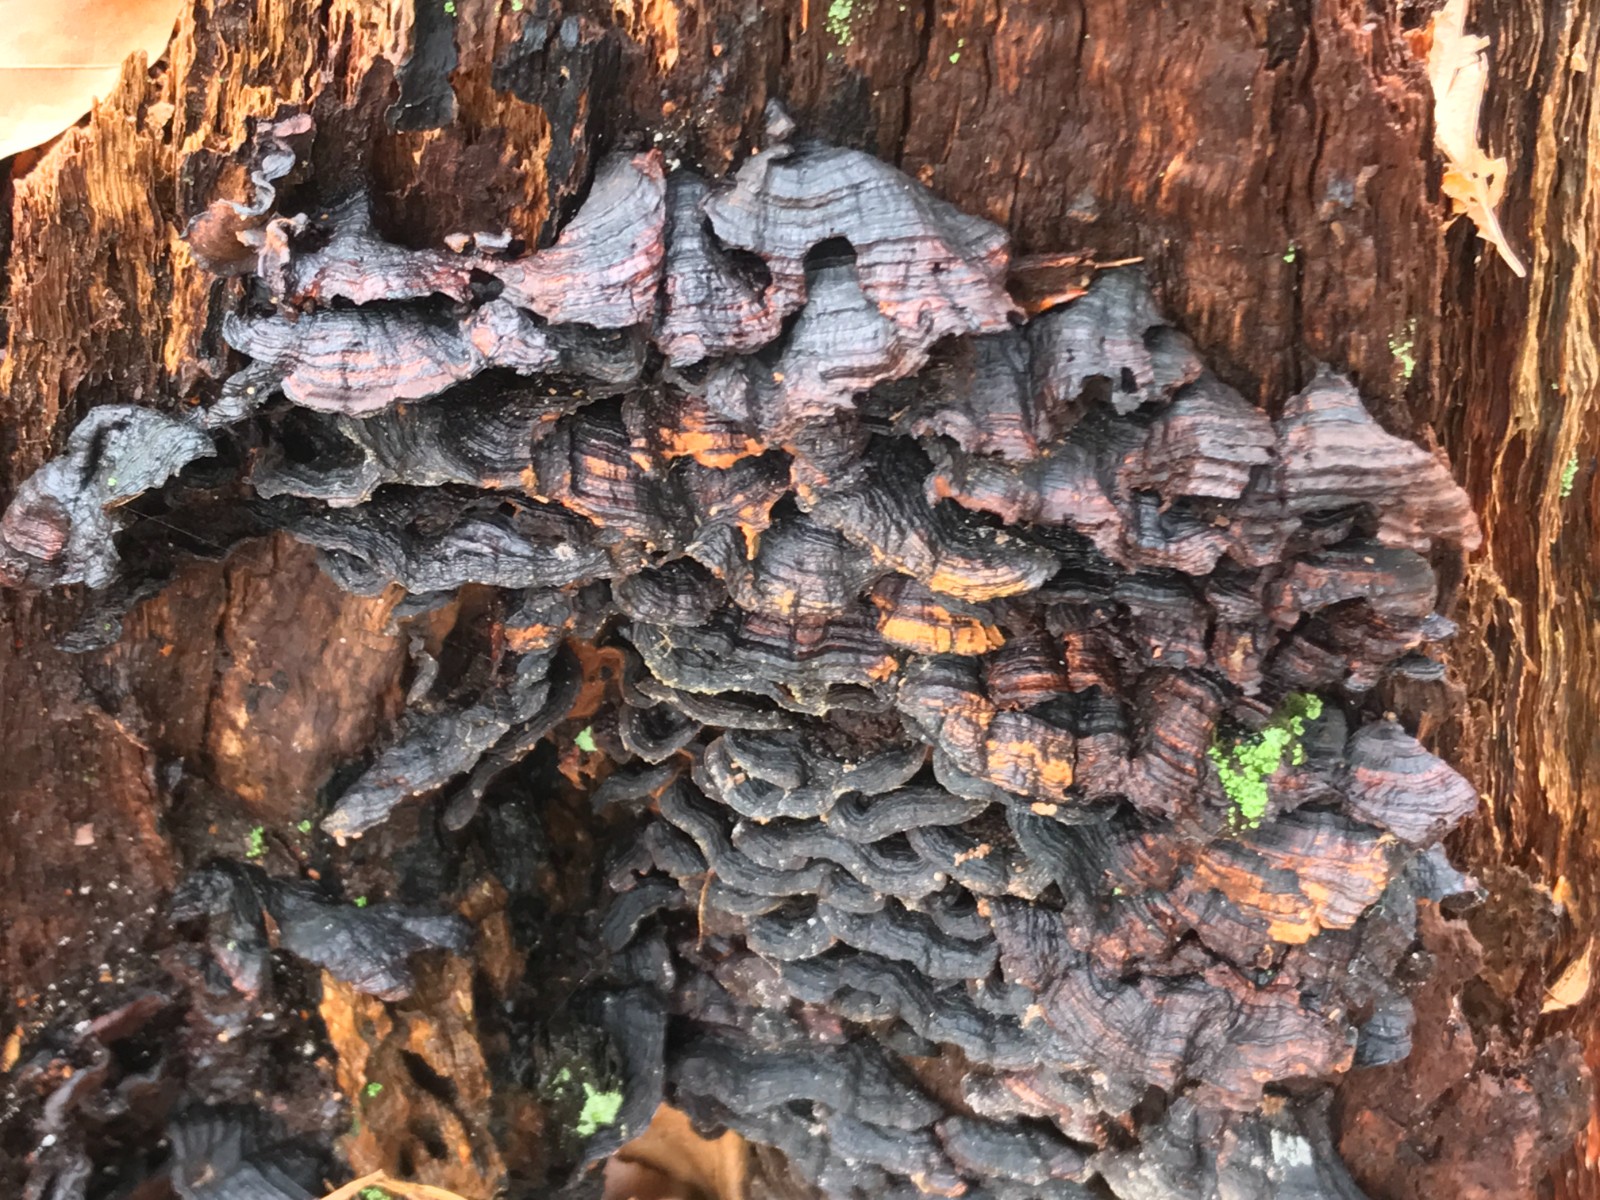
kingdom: Fungi
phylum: Basidiomycota
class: Agaricomycetes
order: Hymenochaetales
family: Hymenochaetaceae
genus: Hymenochaete
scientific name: Hymenochaete rubiginosa
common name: stiv ruslædersvamp
